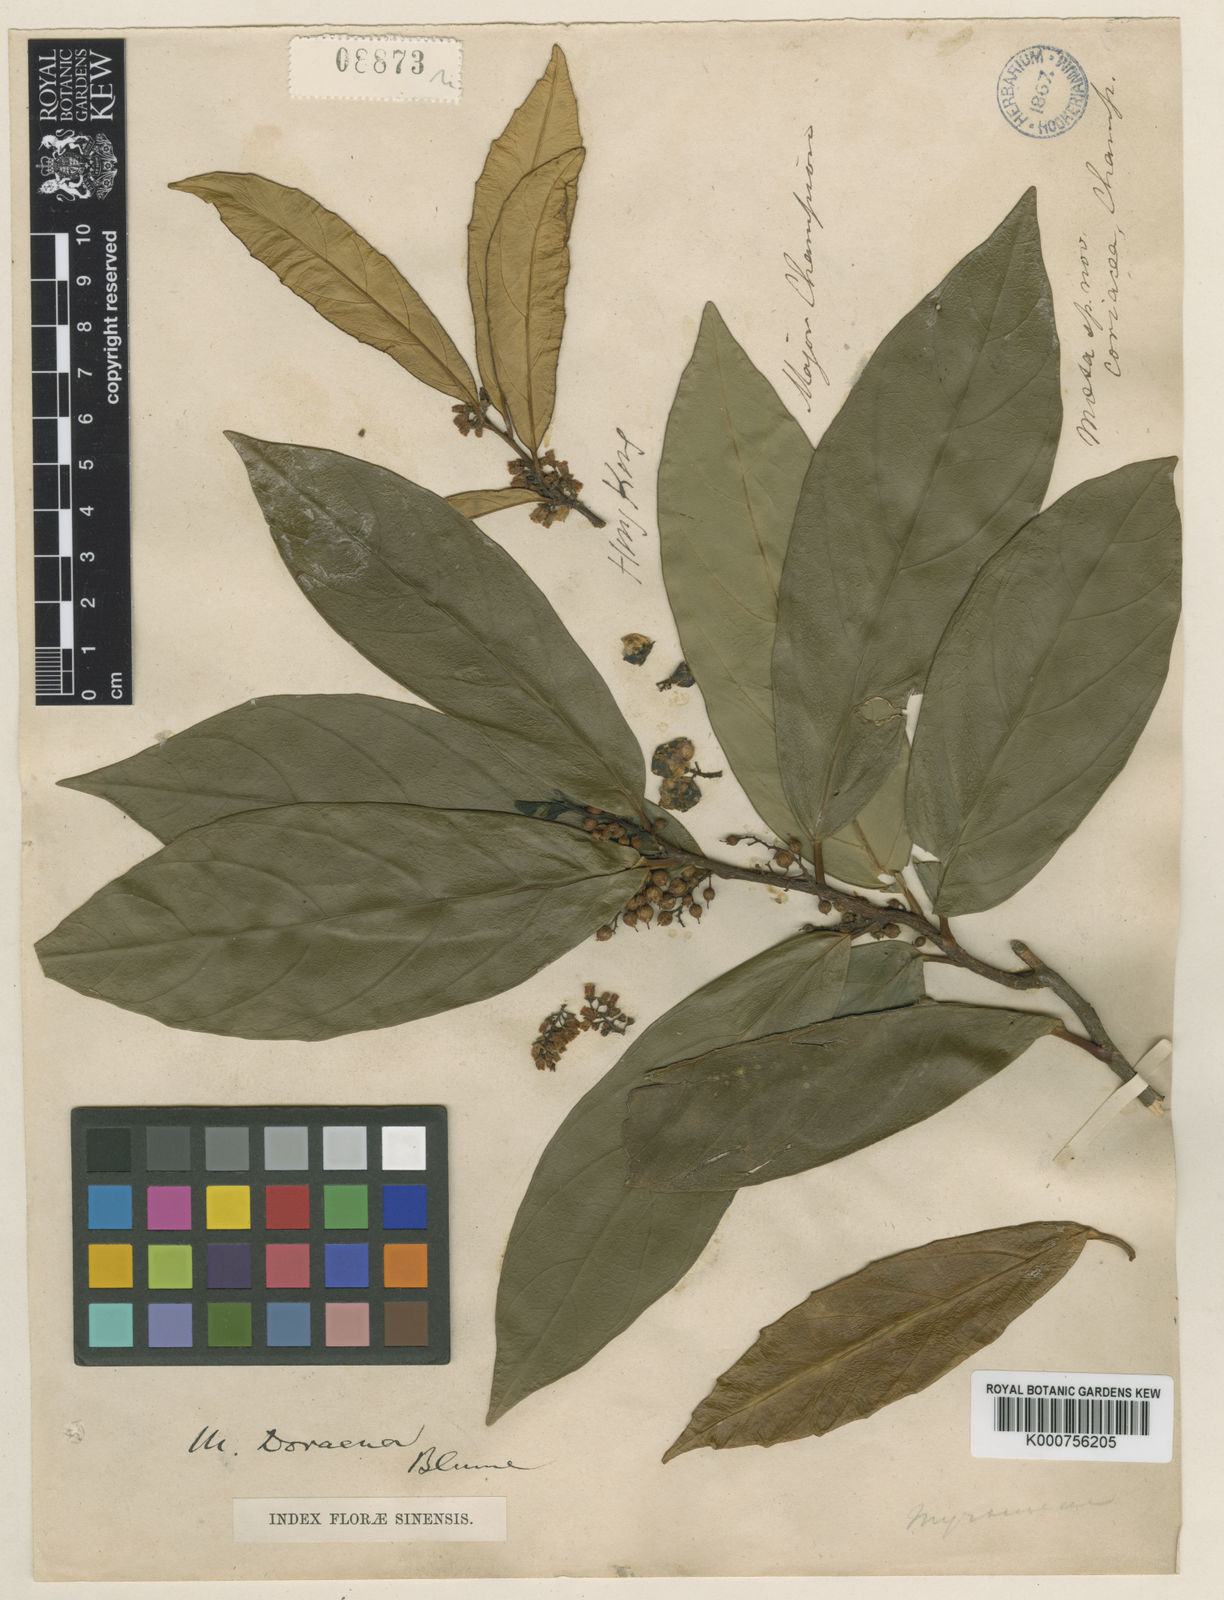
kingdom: Plantae
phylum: Tracheophyta
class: Magnoliopsida
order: Ericales
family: Primulaceae
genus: Maesa
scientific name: Maesa
